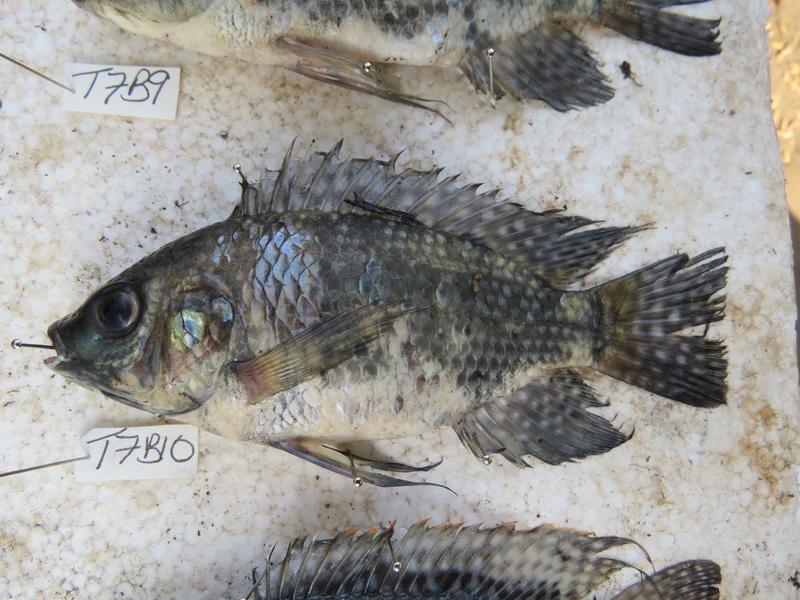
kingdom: Animalia
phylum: Chordata
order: Perciformes
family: Cichlidae
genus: Oreochromis
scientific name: Oreochromis leucostictus
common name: Blue spotted tilapia
